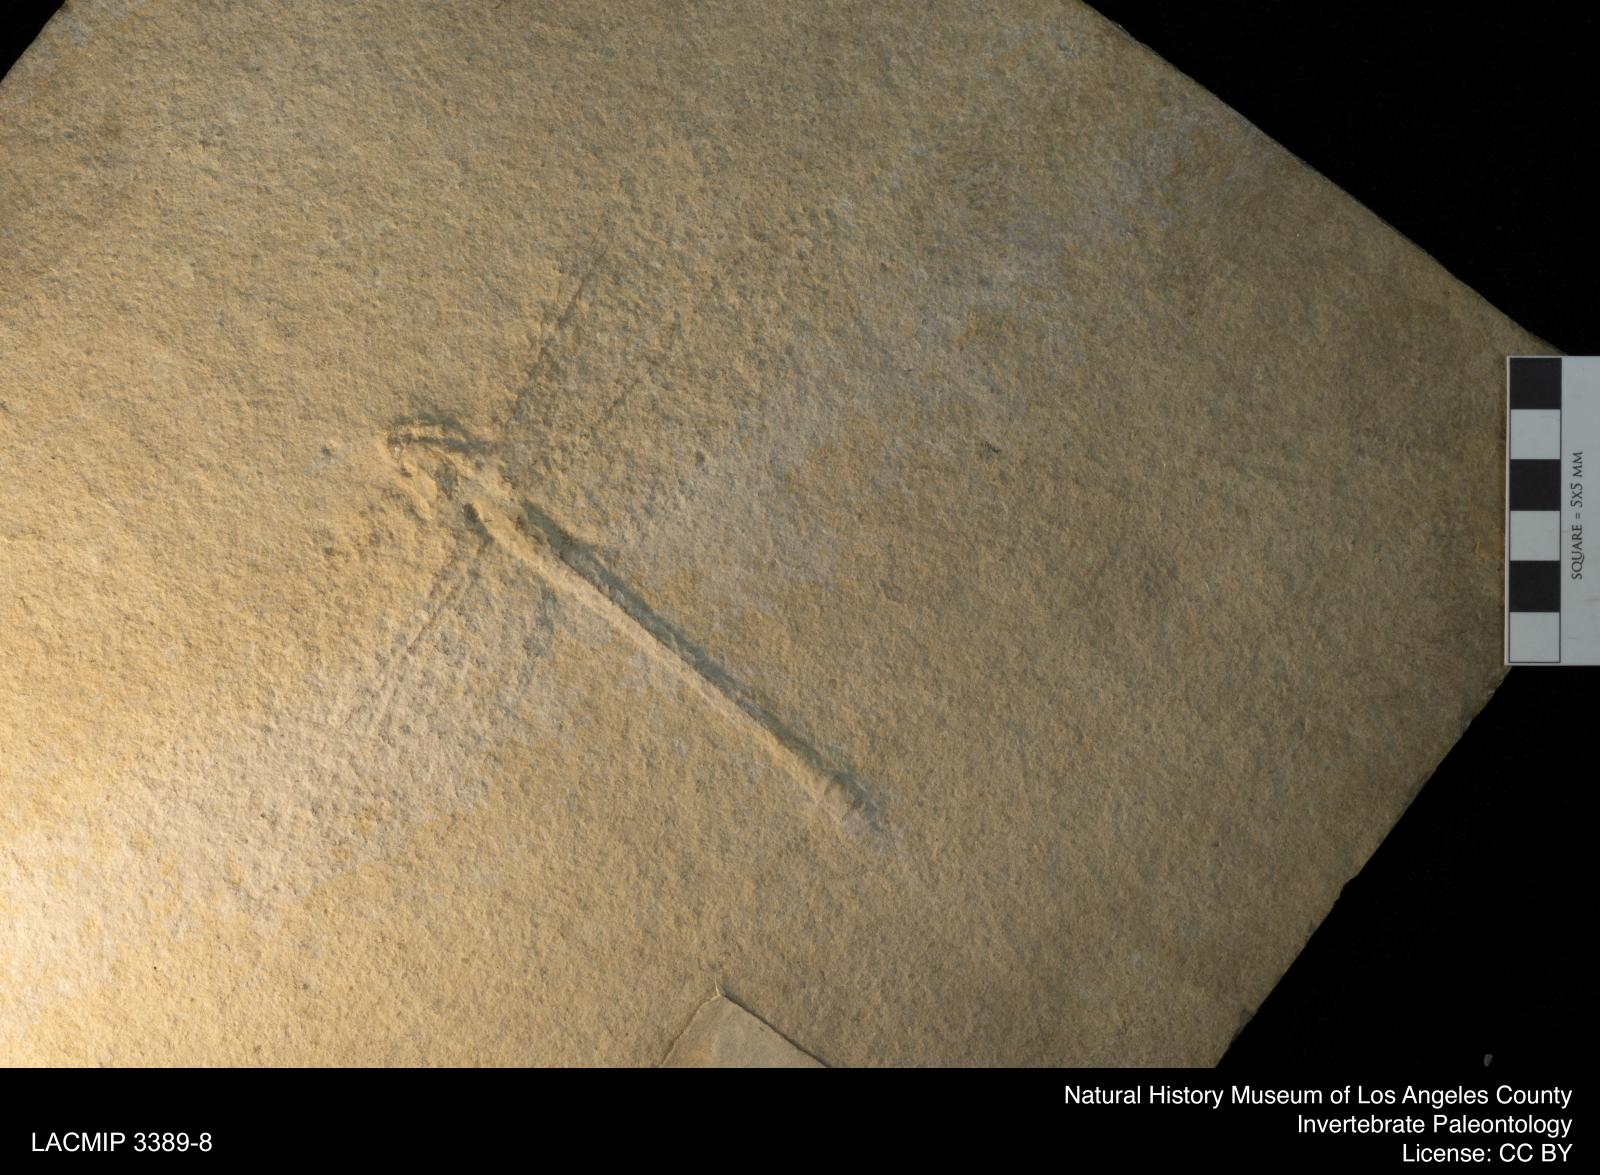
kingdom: Animalia
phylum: Arthropoda
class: Insecta
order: Odonata
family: Petaluridae
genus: Mesuropetala
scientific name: Mesuropetala Aeschna muensteri
